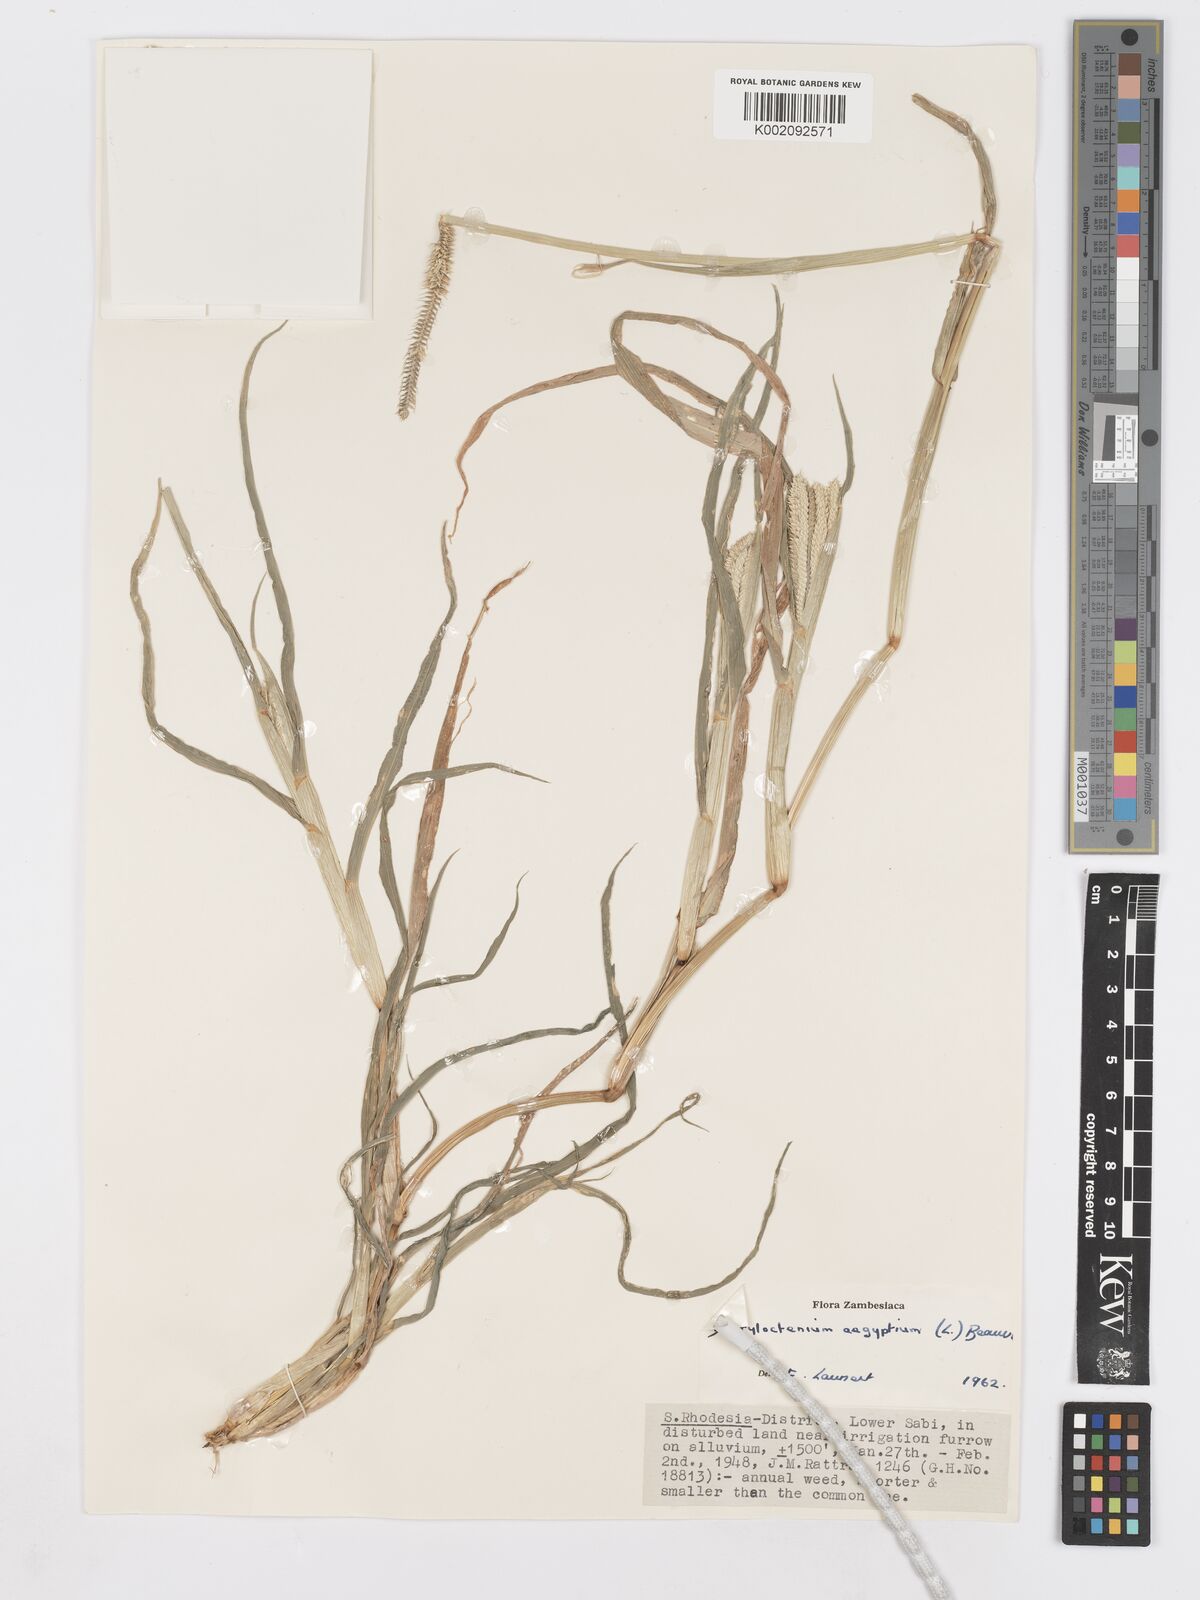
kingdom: Plantae
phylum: Tracheophyta
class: Liliopsida
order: Poales
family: Poaceae
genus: Dactyloctenium
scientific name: Dactyloctenium aegyptium
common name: Egyptian grass
